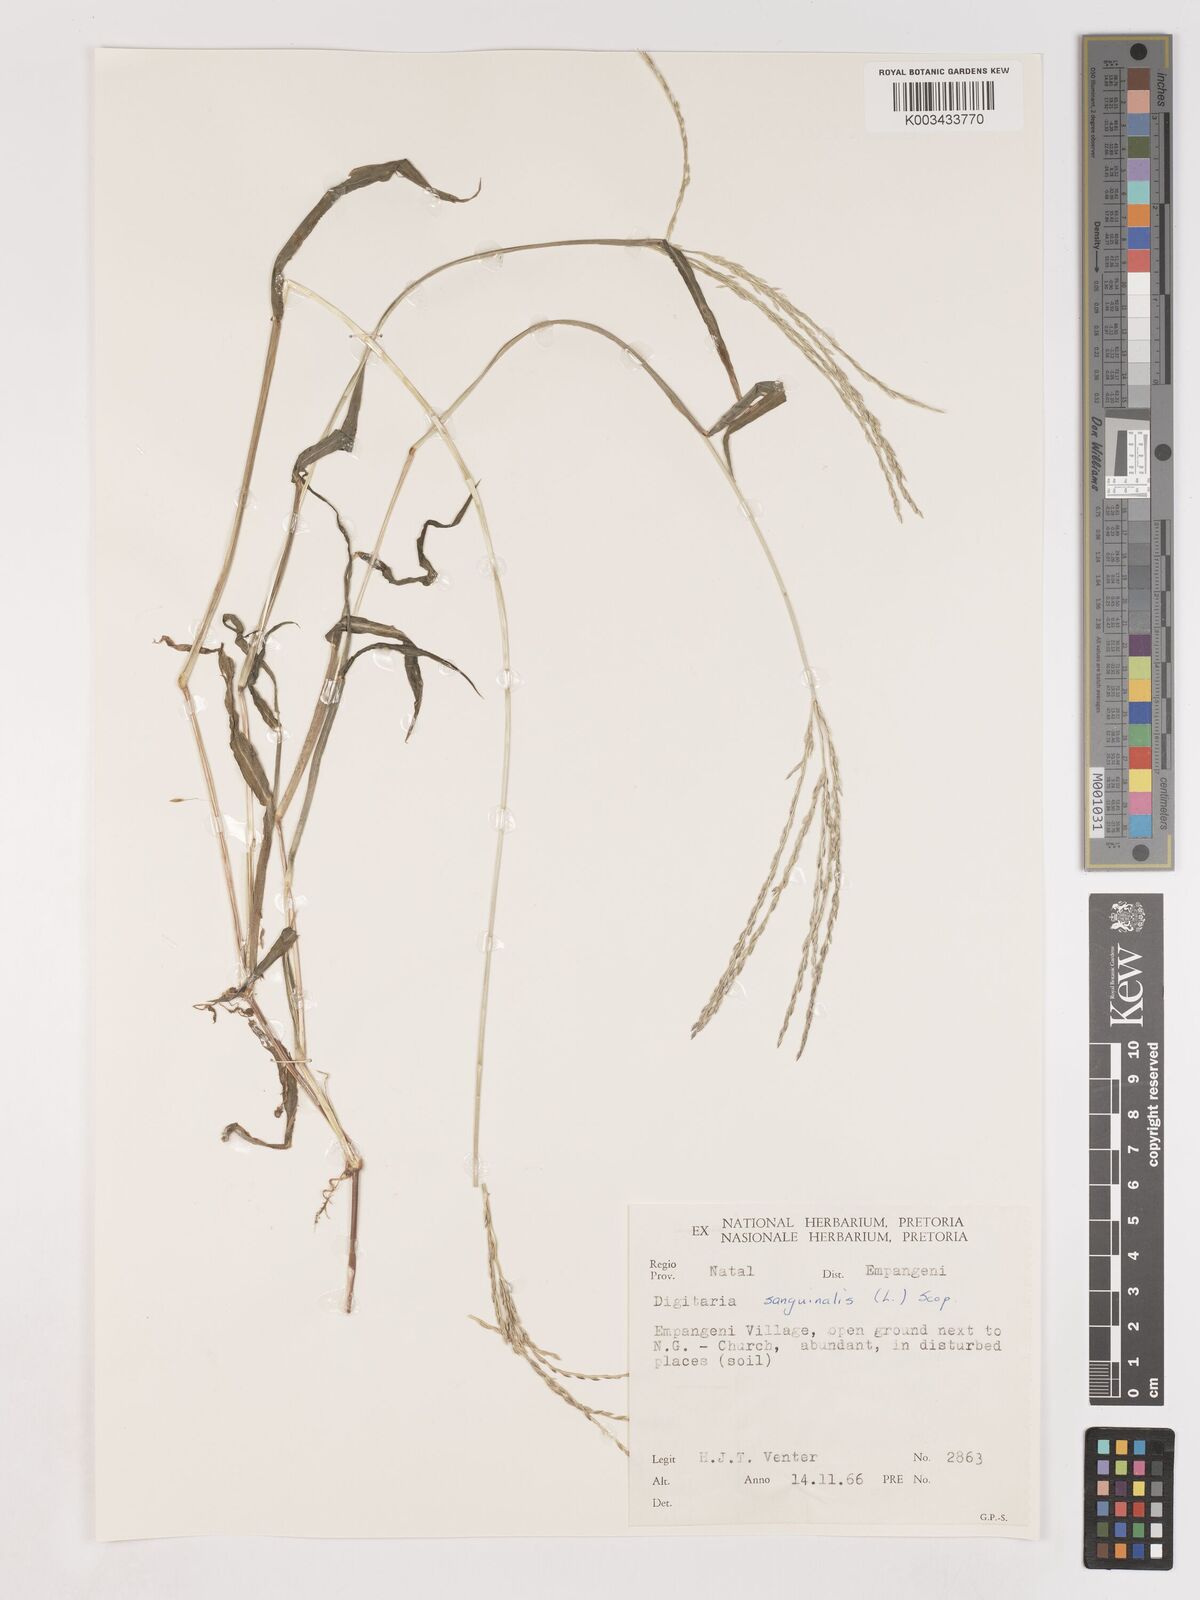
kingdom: Plantae
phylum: Tracheophyta
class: Liliopsida
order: Poales
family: Poaceae
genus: Digitaria
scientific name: Digitaria ciliaris
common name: Tropical finger-grass
